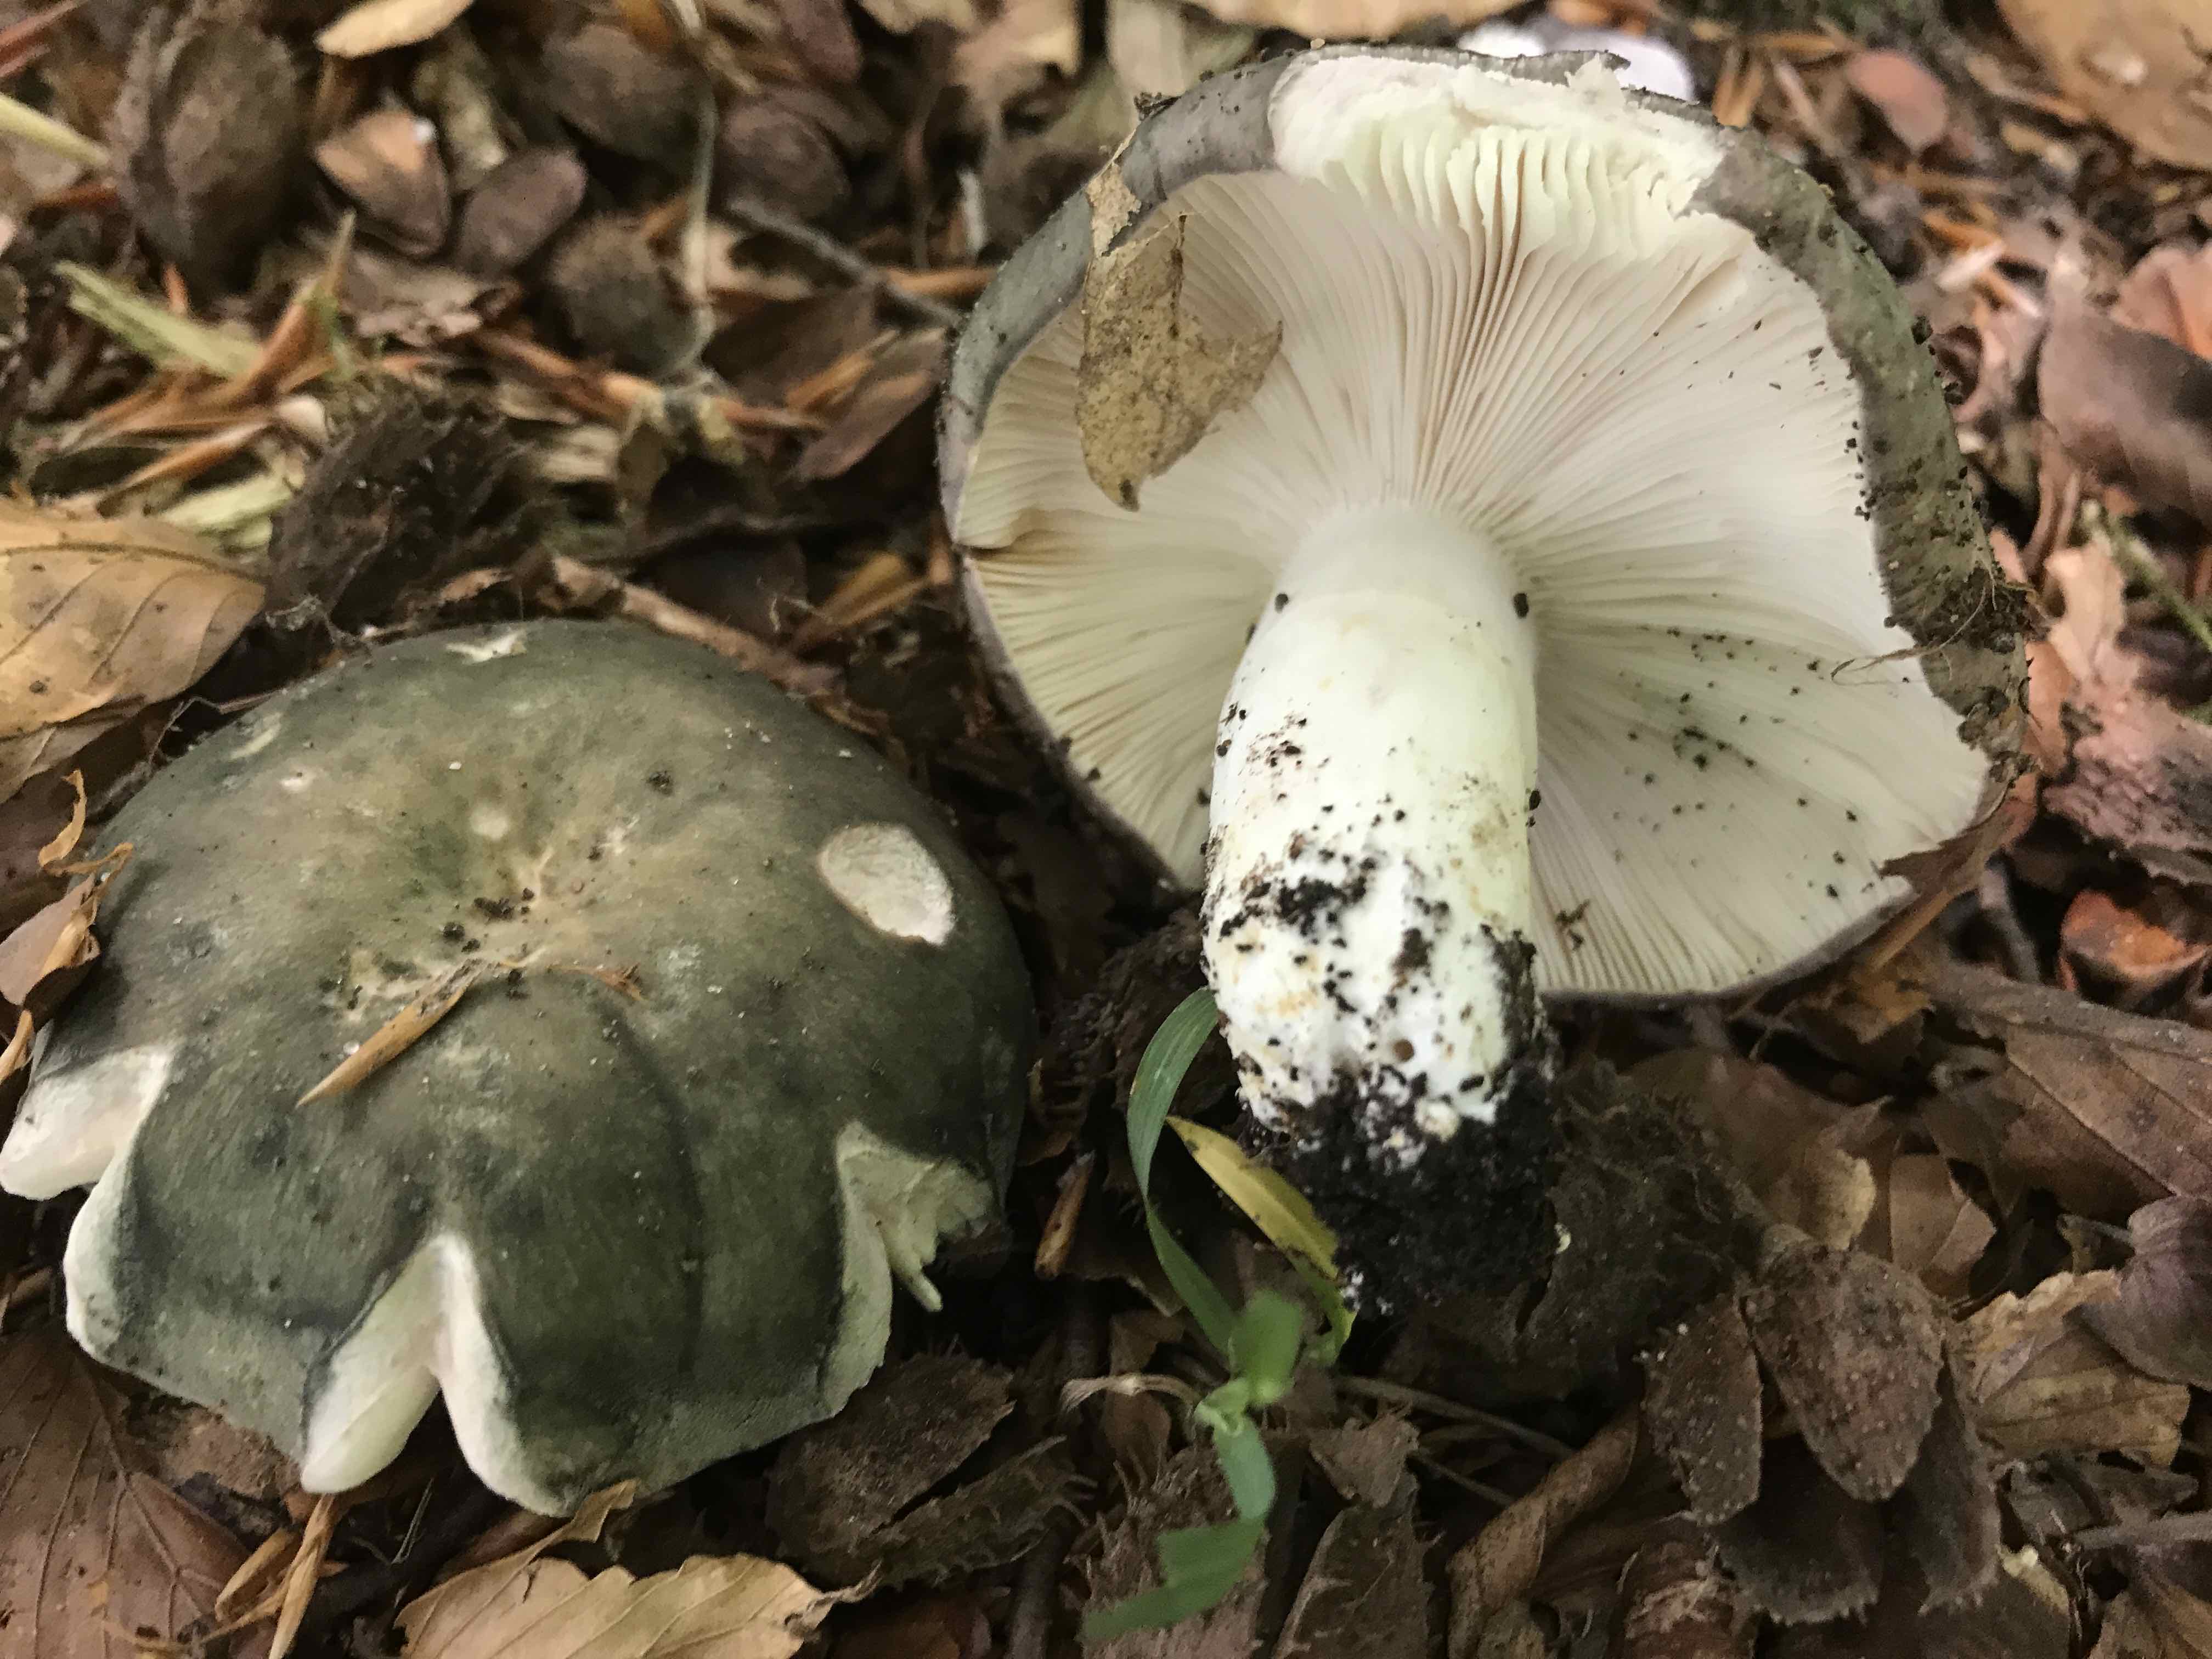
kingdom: Fungi
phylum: Basidiomycota
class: Agaricomycetes
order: Russulales
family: Russulaceae
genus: Russula
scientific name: Russula
